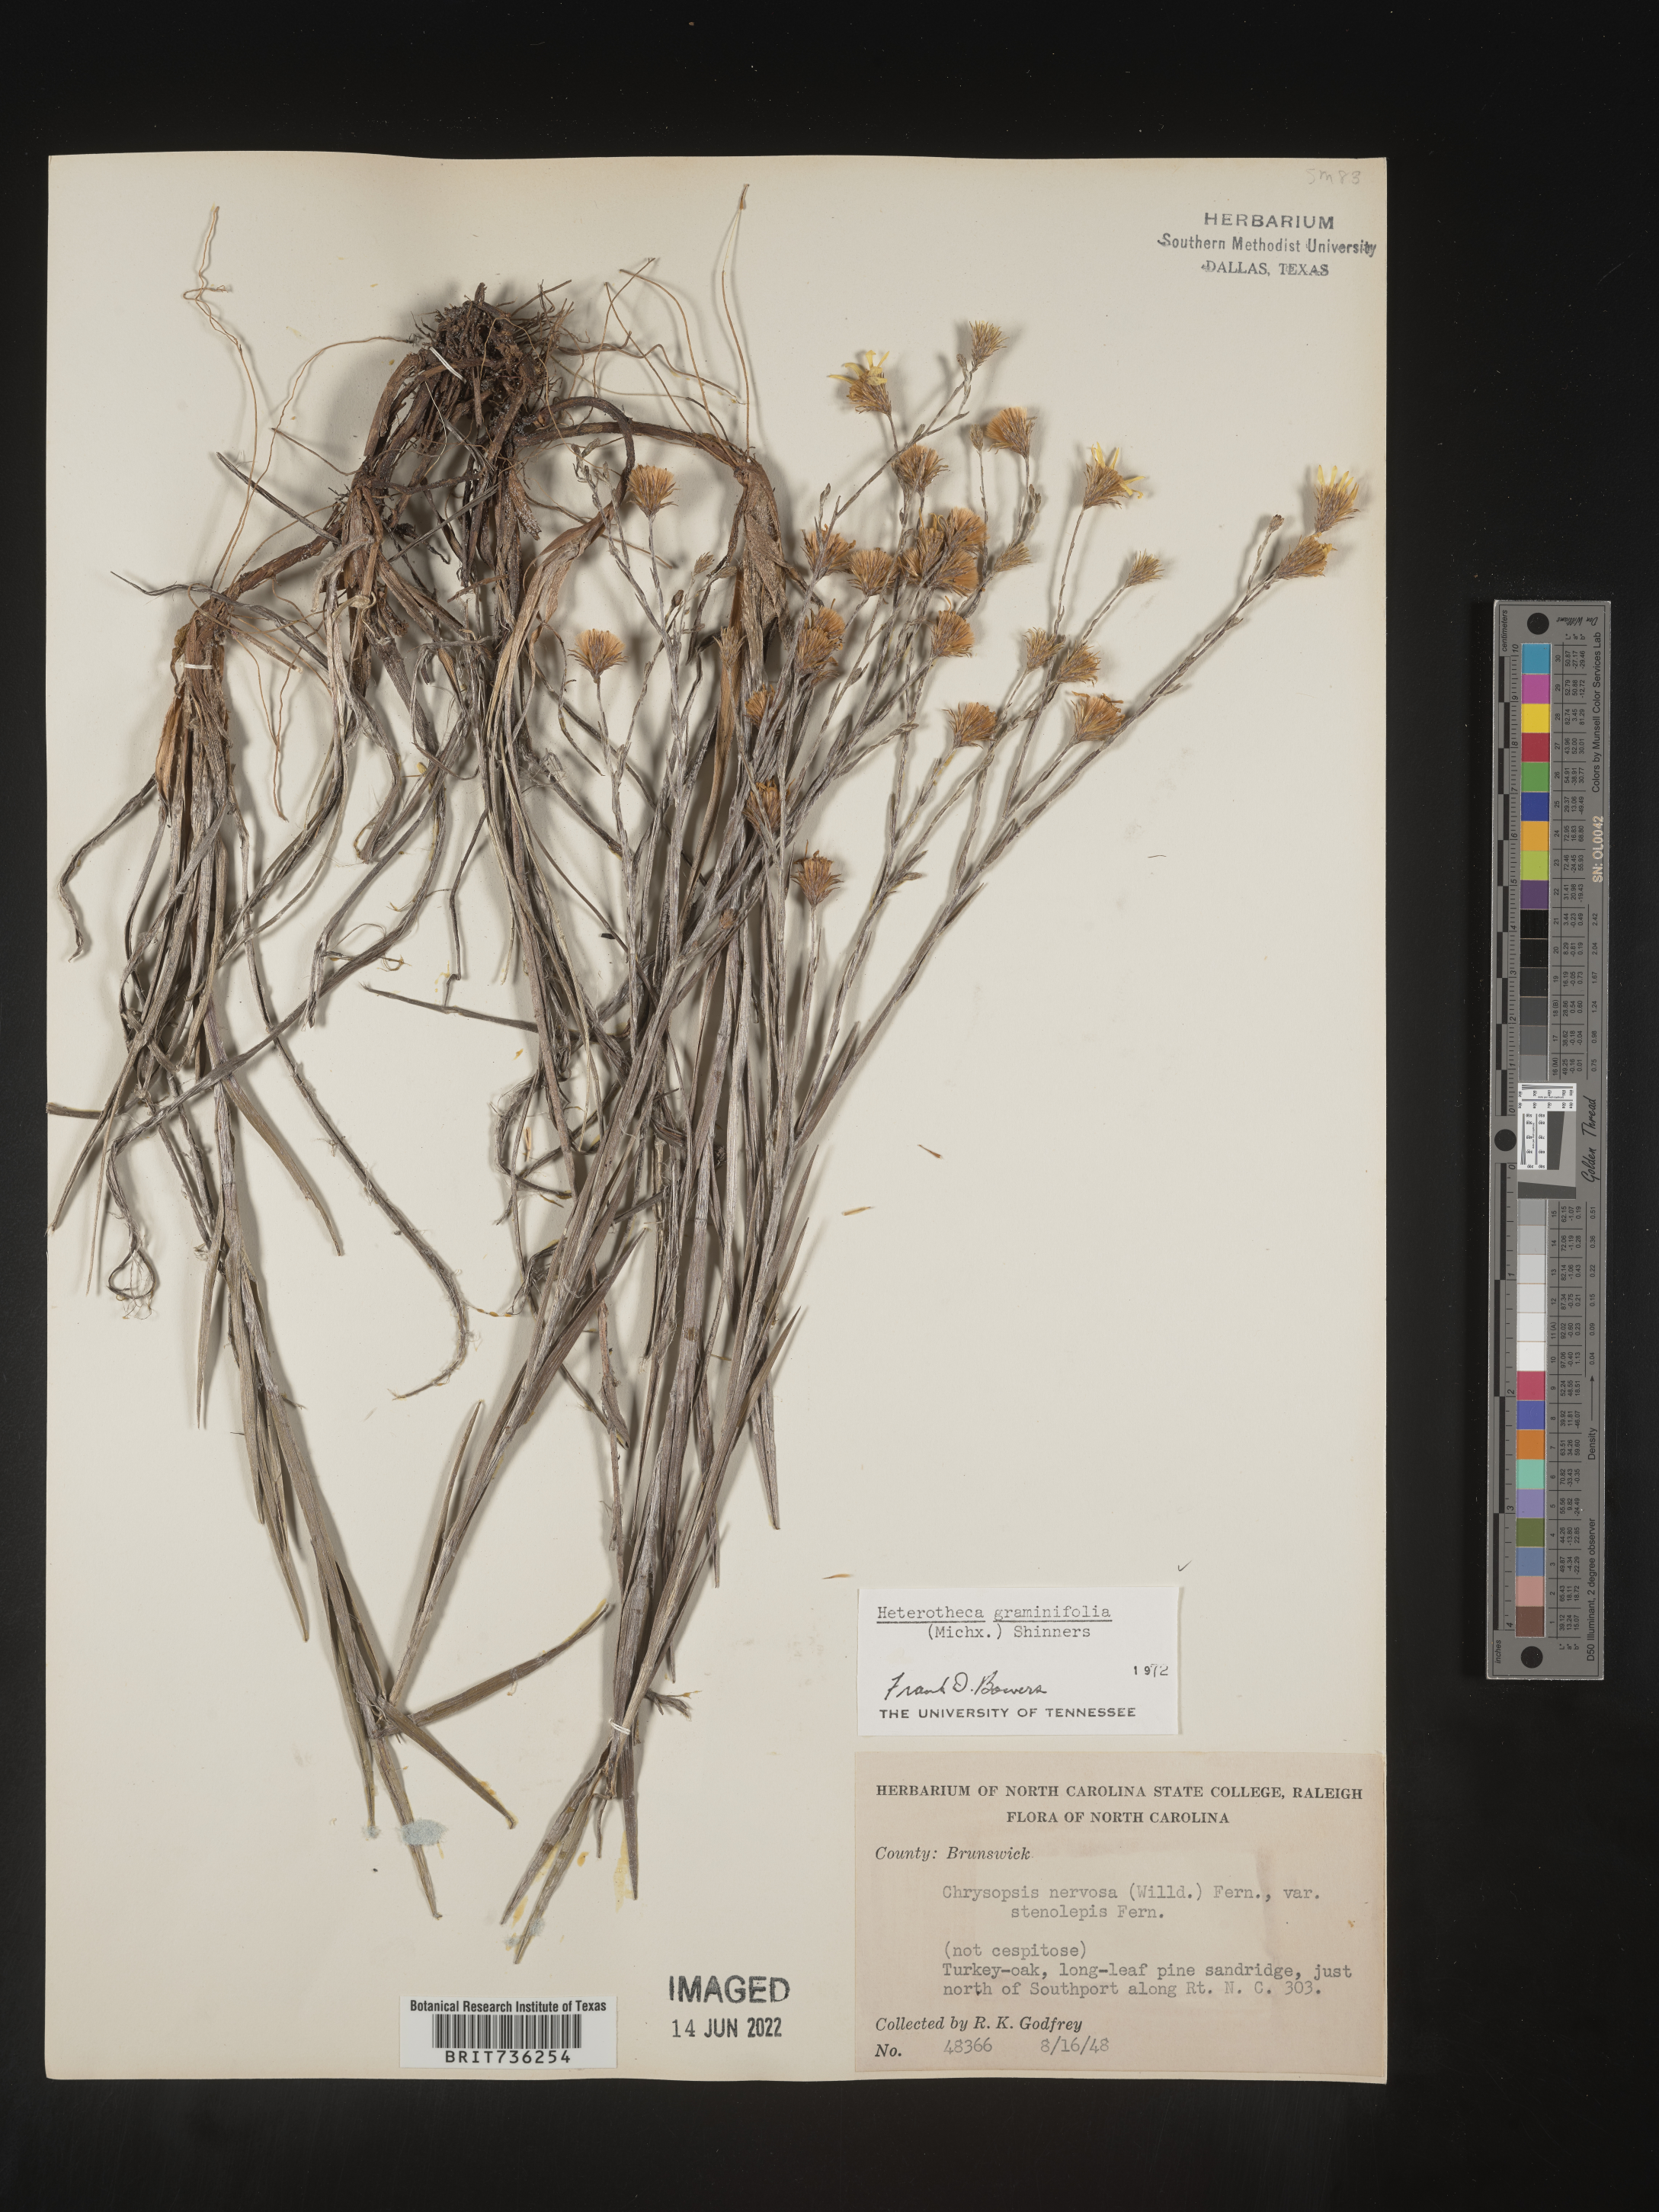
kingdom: Plantae
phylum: Tracheophyta
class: Magnoliopsida
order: Asterales
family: Asteraceae
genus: Pityopsis
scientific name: Pityopsis graminifolia
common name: Grass-leaf golden-aster
